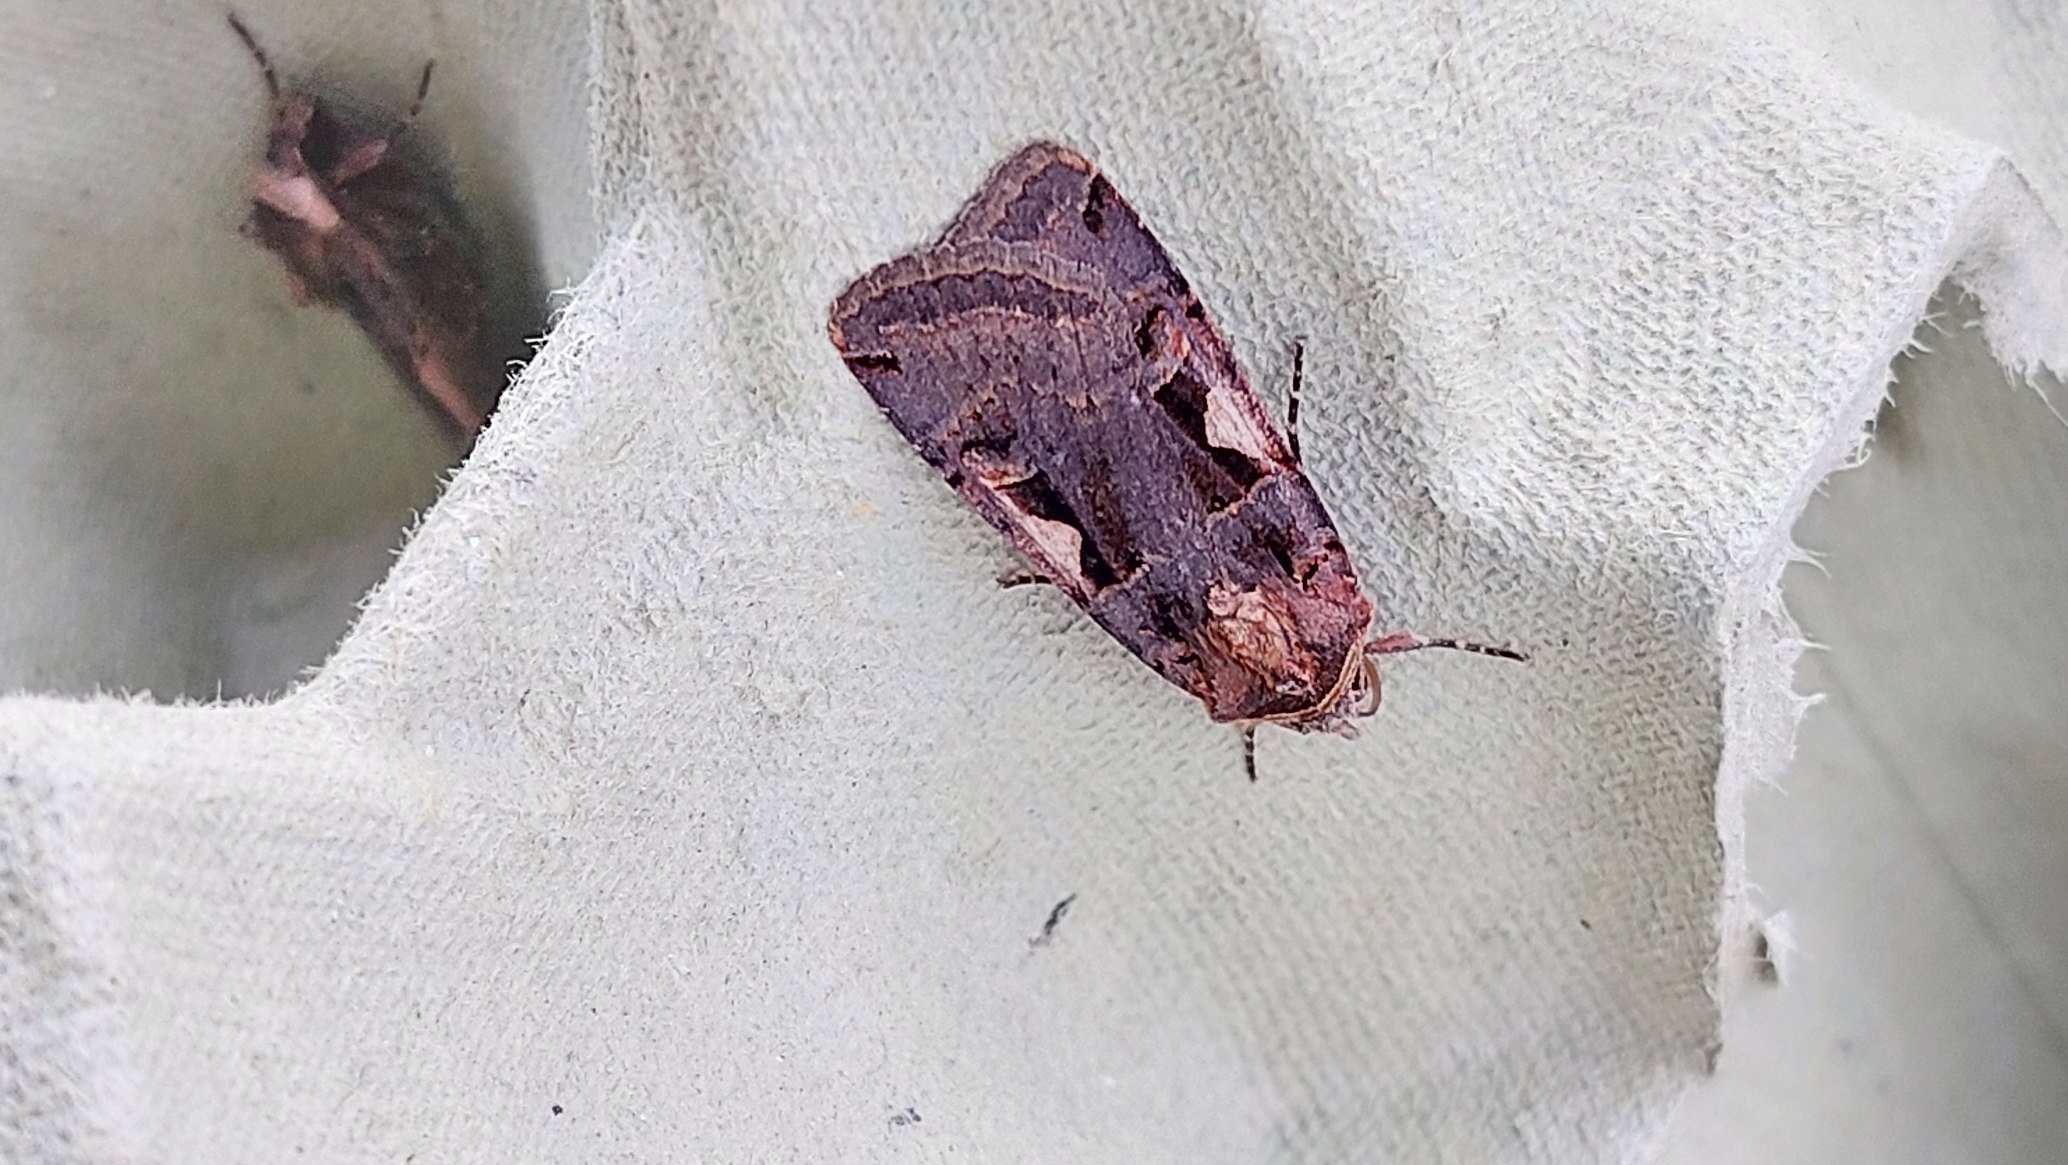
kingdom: Animalia
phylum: Arthropoda
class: Insecta
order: Lepidoptera
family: Noctuidae
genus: Xestia
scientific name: Xestia c-nigrum
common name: Det sorte c
